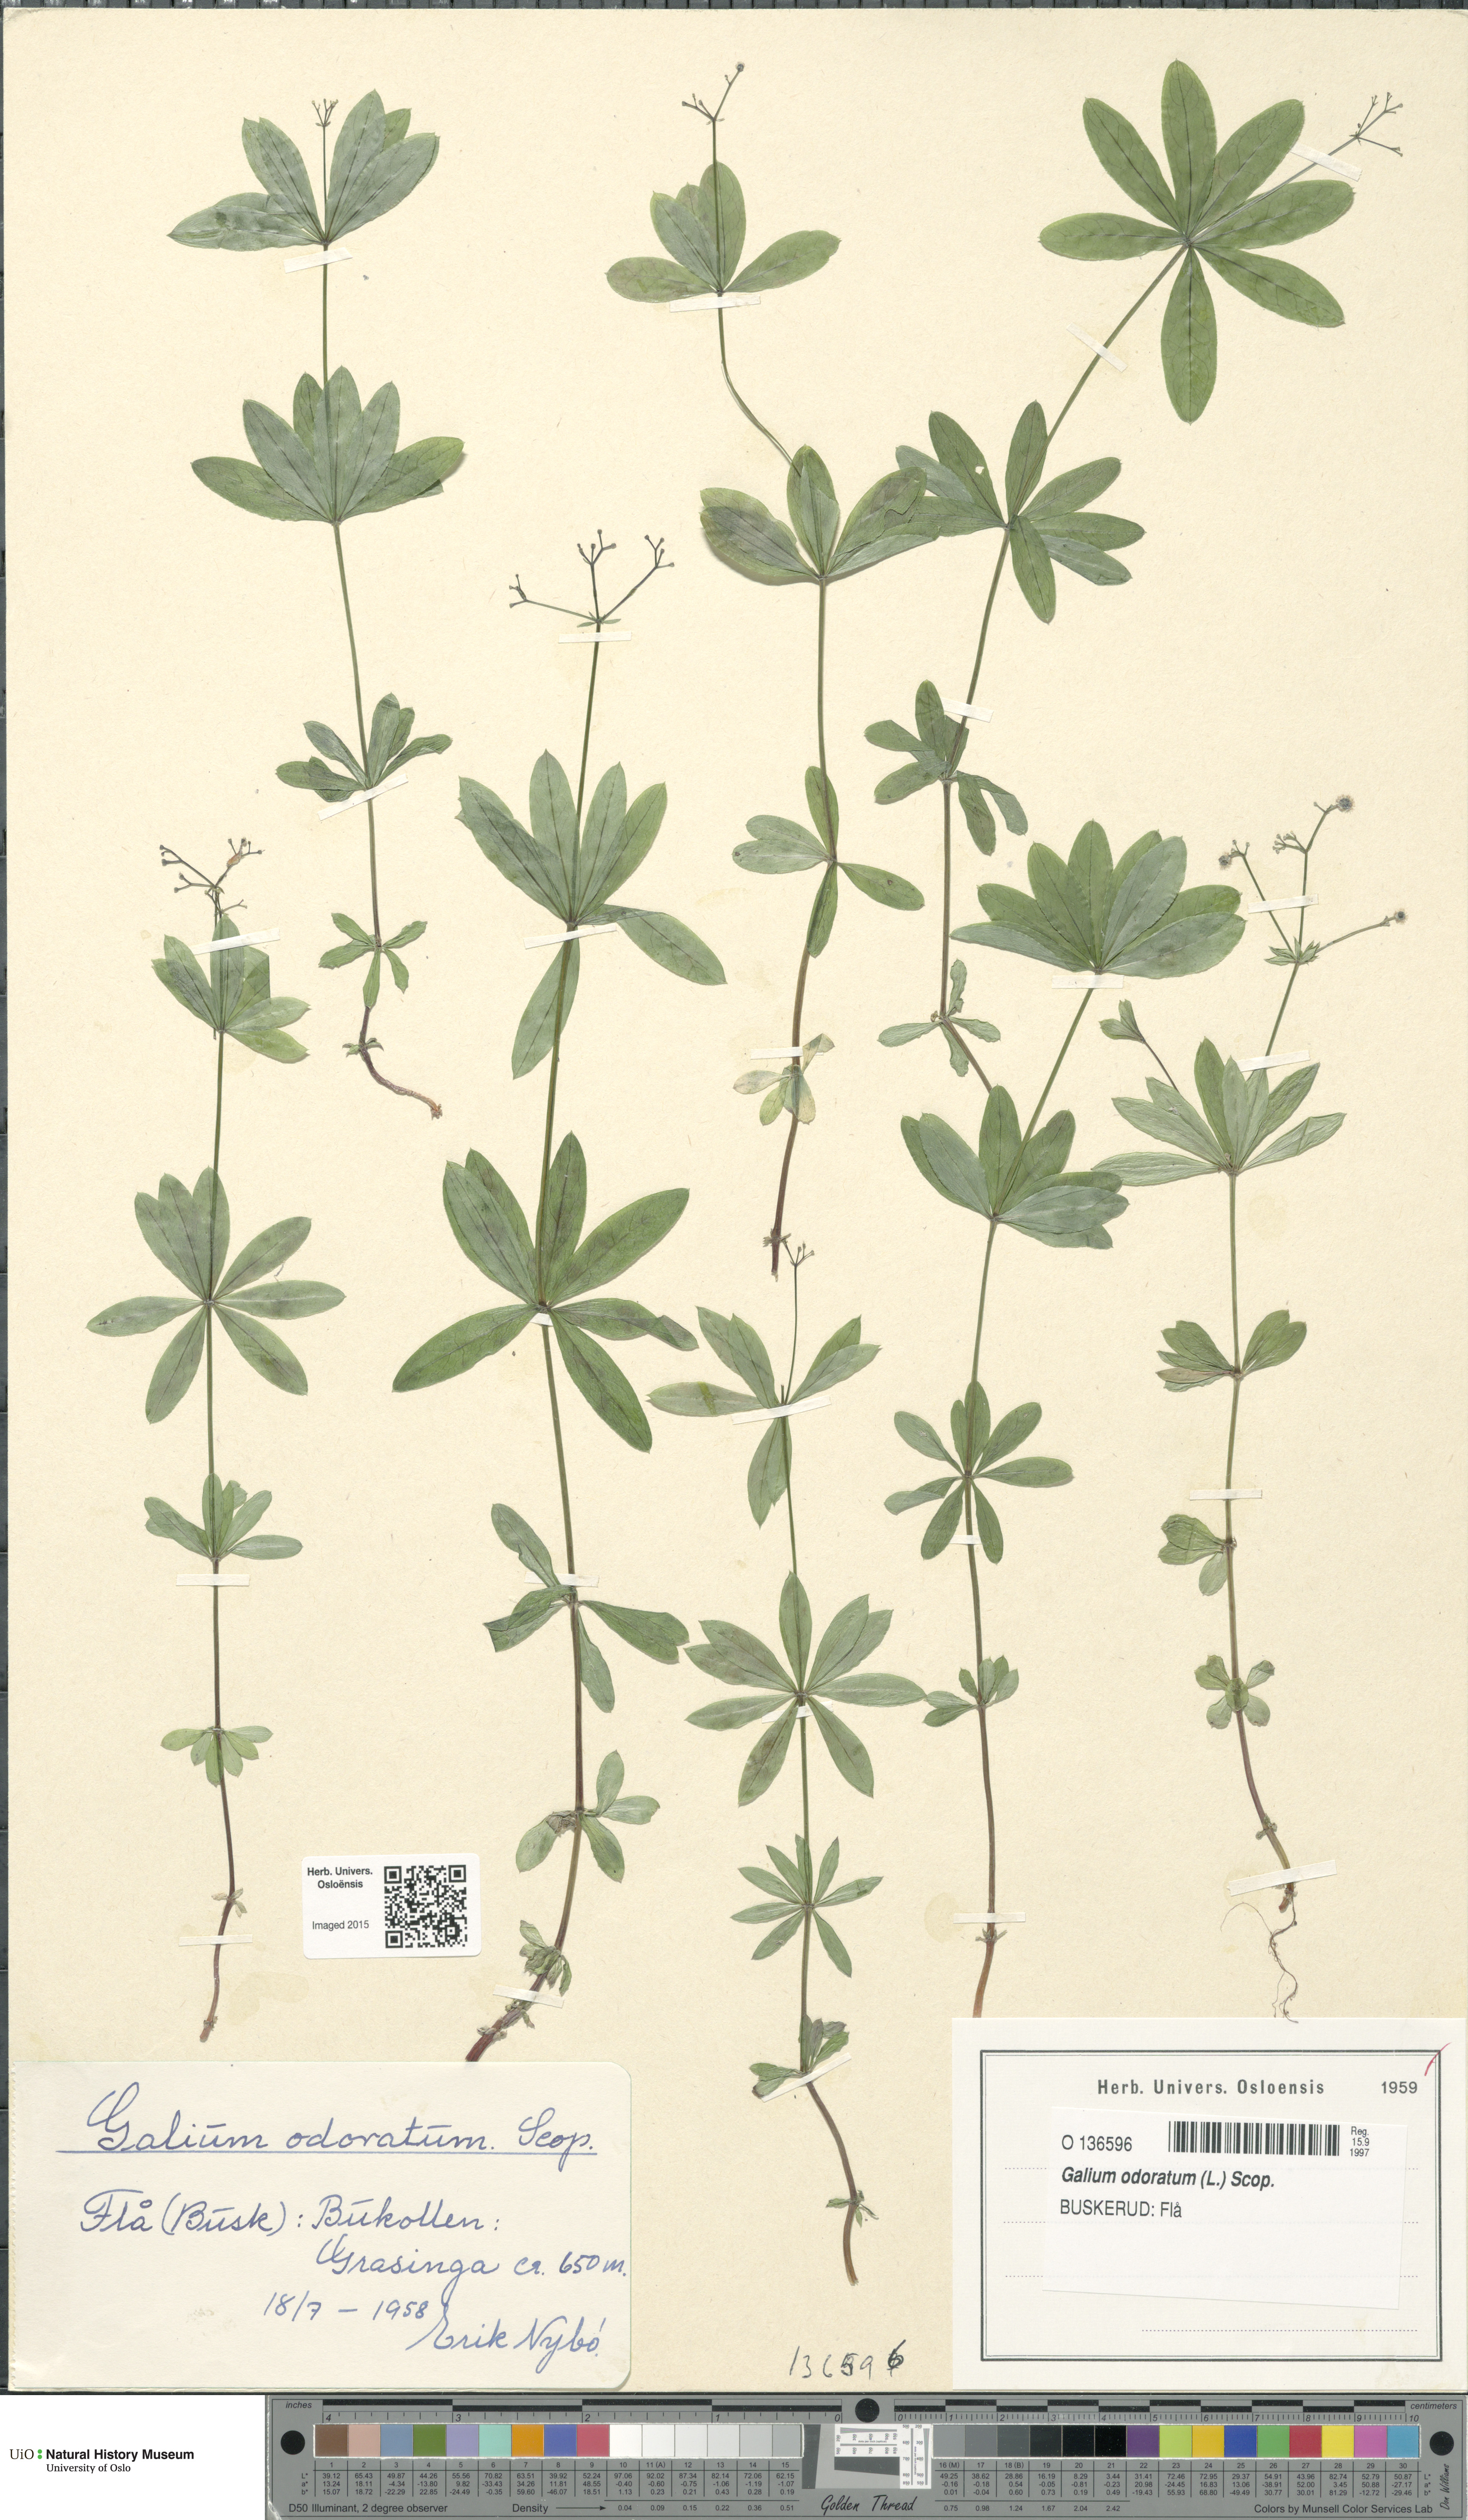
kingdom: Plantae
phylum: Tracheophyta
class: Magnoliopsida
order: Gentianales
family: Rubiaceae
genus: Galium
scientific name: Galium odoratum
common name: Sweet woodruff
